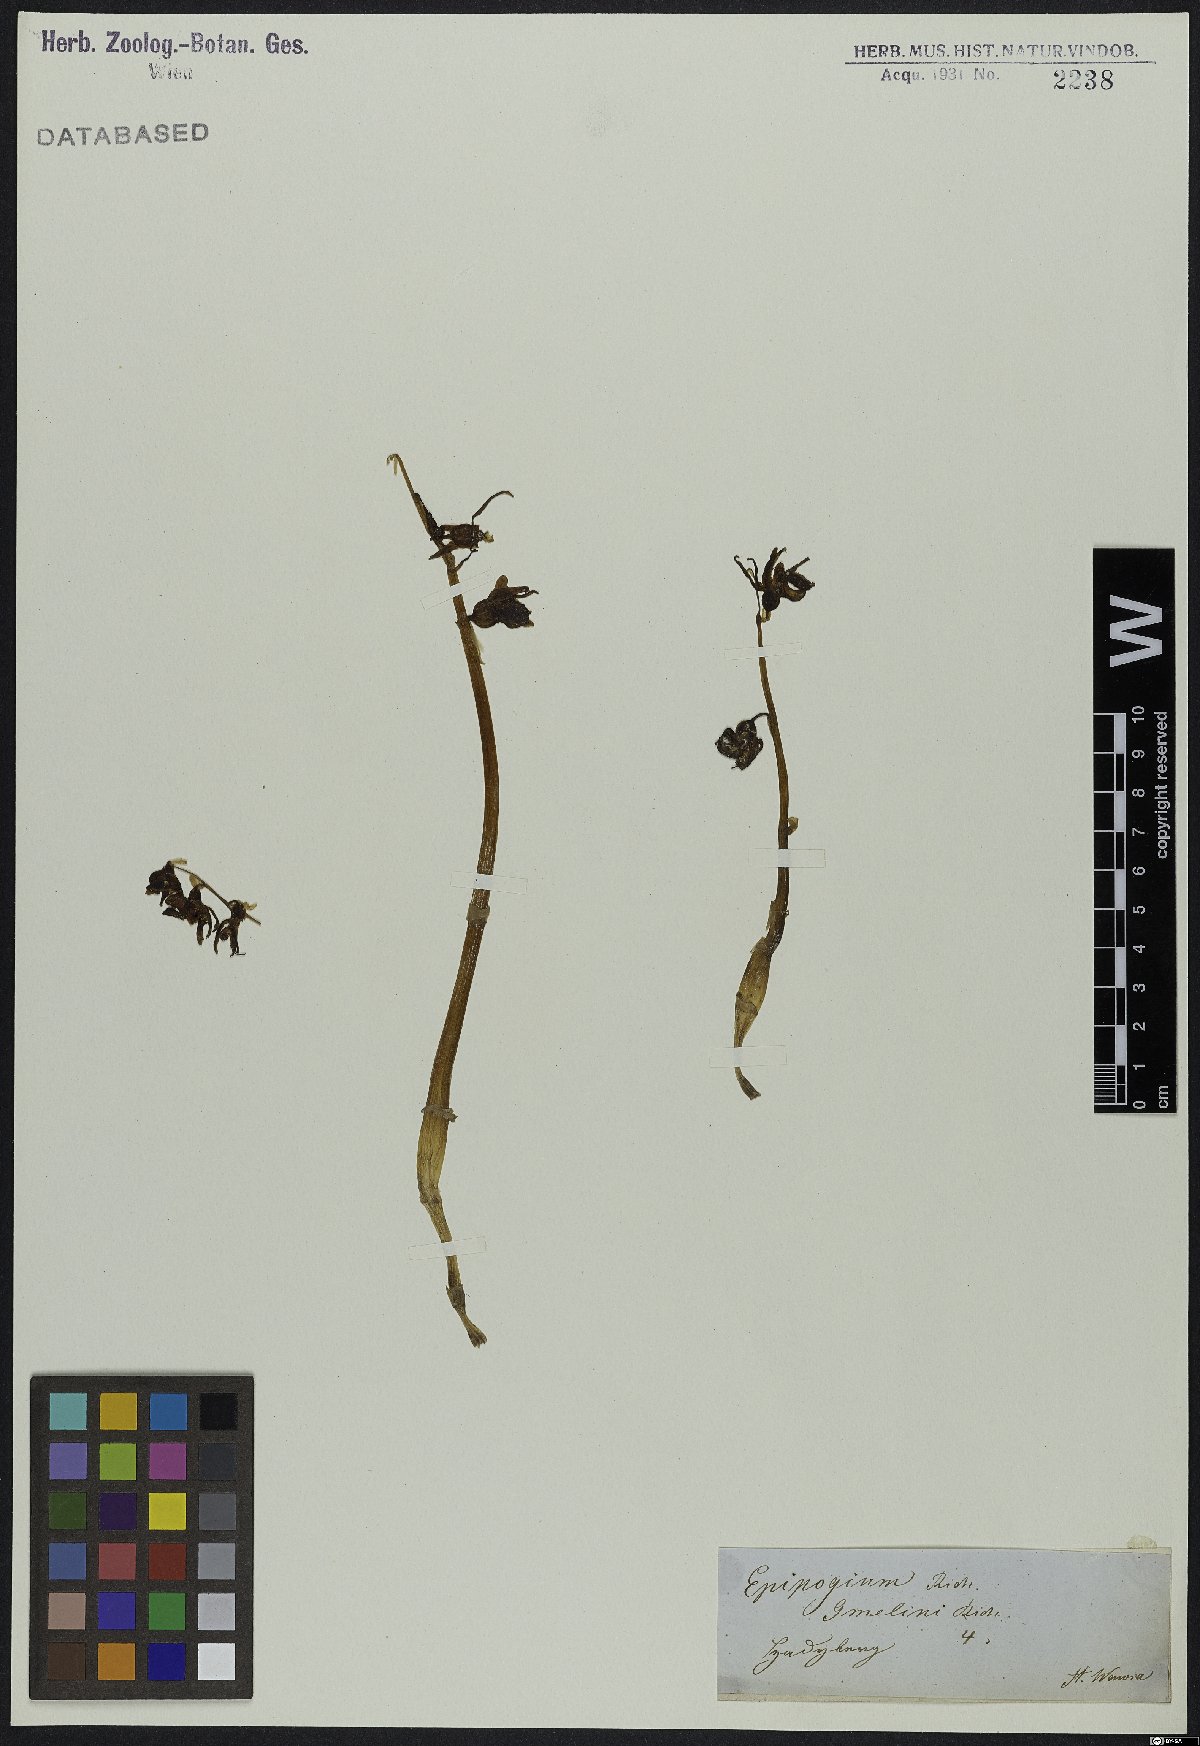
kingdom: Plantae
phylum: Tracheophyta
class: Liliopsida
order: Asparagales
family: Orchidaceae
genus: Epipogium
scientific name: Epipogium aphyllum
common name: Ghost orchid
